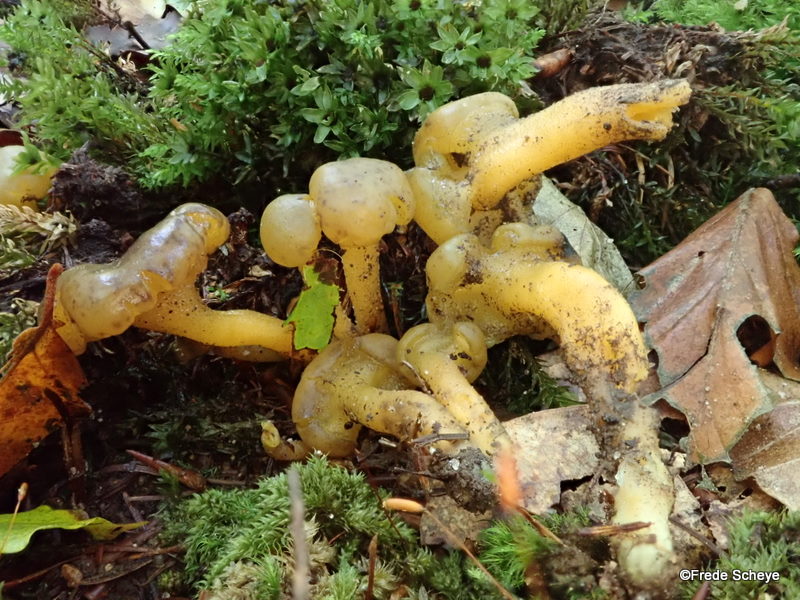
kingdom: Fungi
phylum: Ascomycota
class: Leotiomycetes
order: Leotiales
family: Leotiaceae
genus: Leotia
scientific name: Leotia lubrica
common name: ravsvamp
